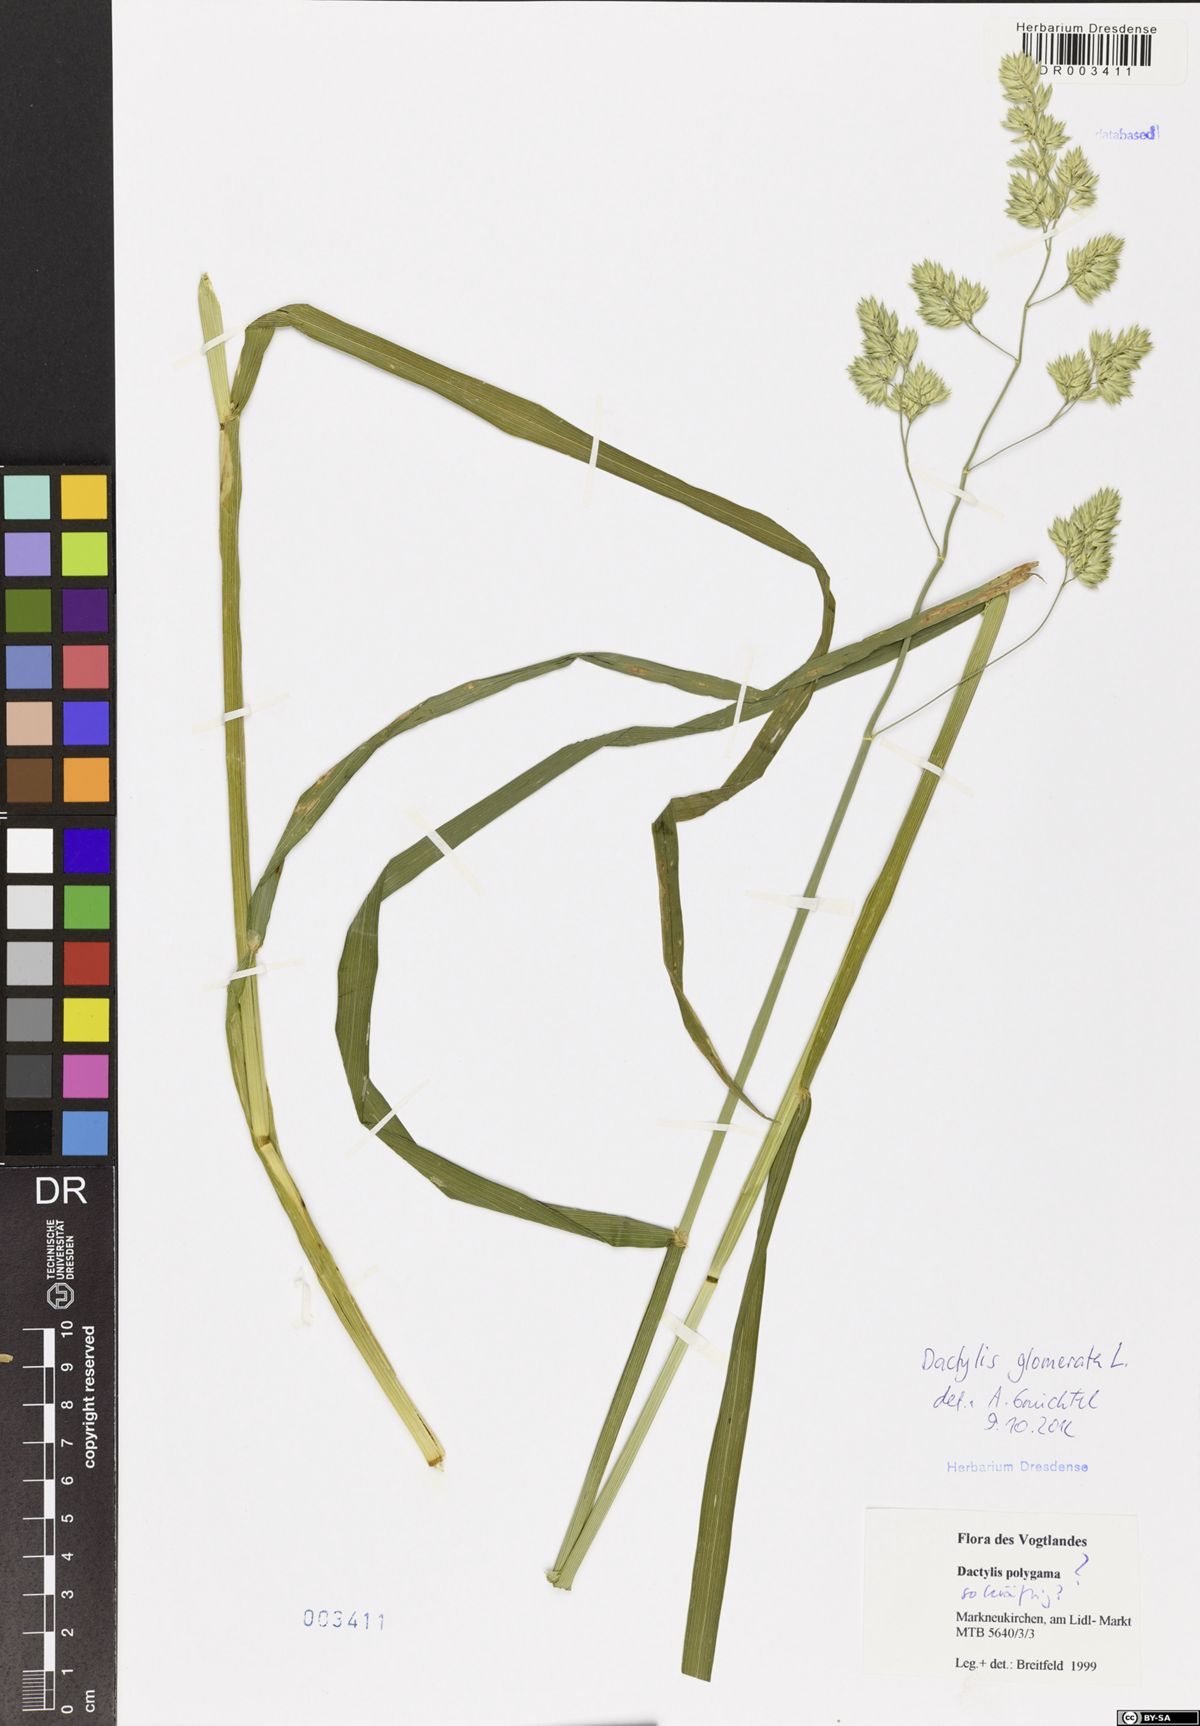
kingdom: Plantae
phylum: Tracheophyta
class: Liliopsida
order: Poales
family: Poaceae
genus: Dactylis
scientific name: Dactylis glomerata
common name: Orchardgrass
